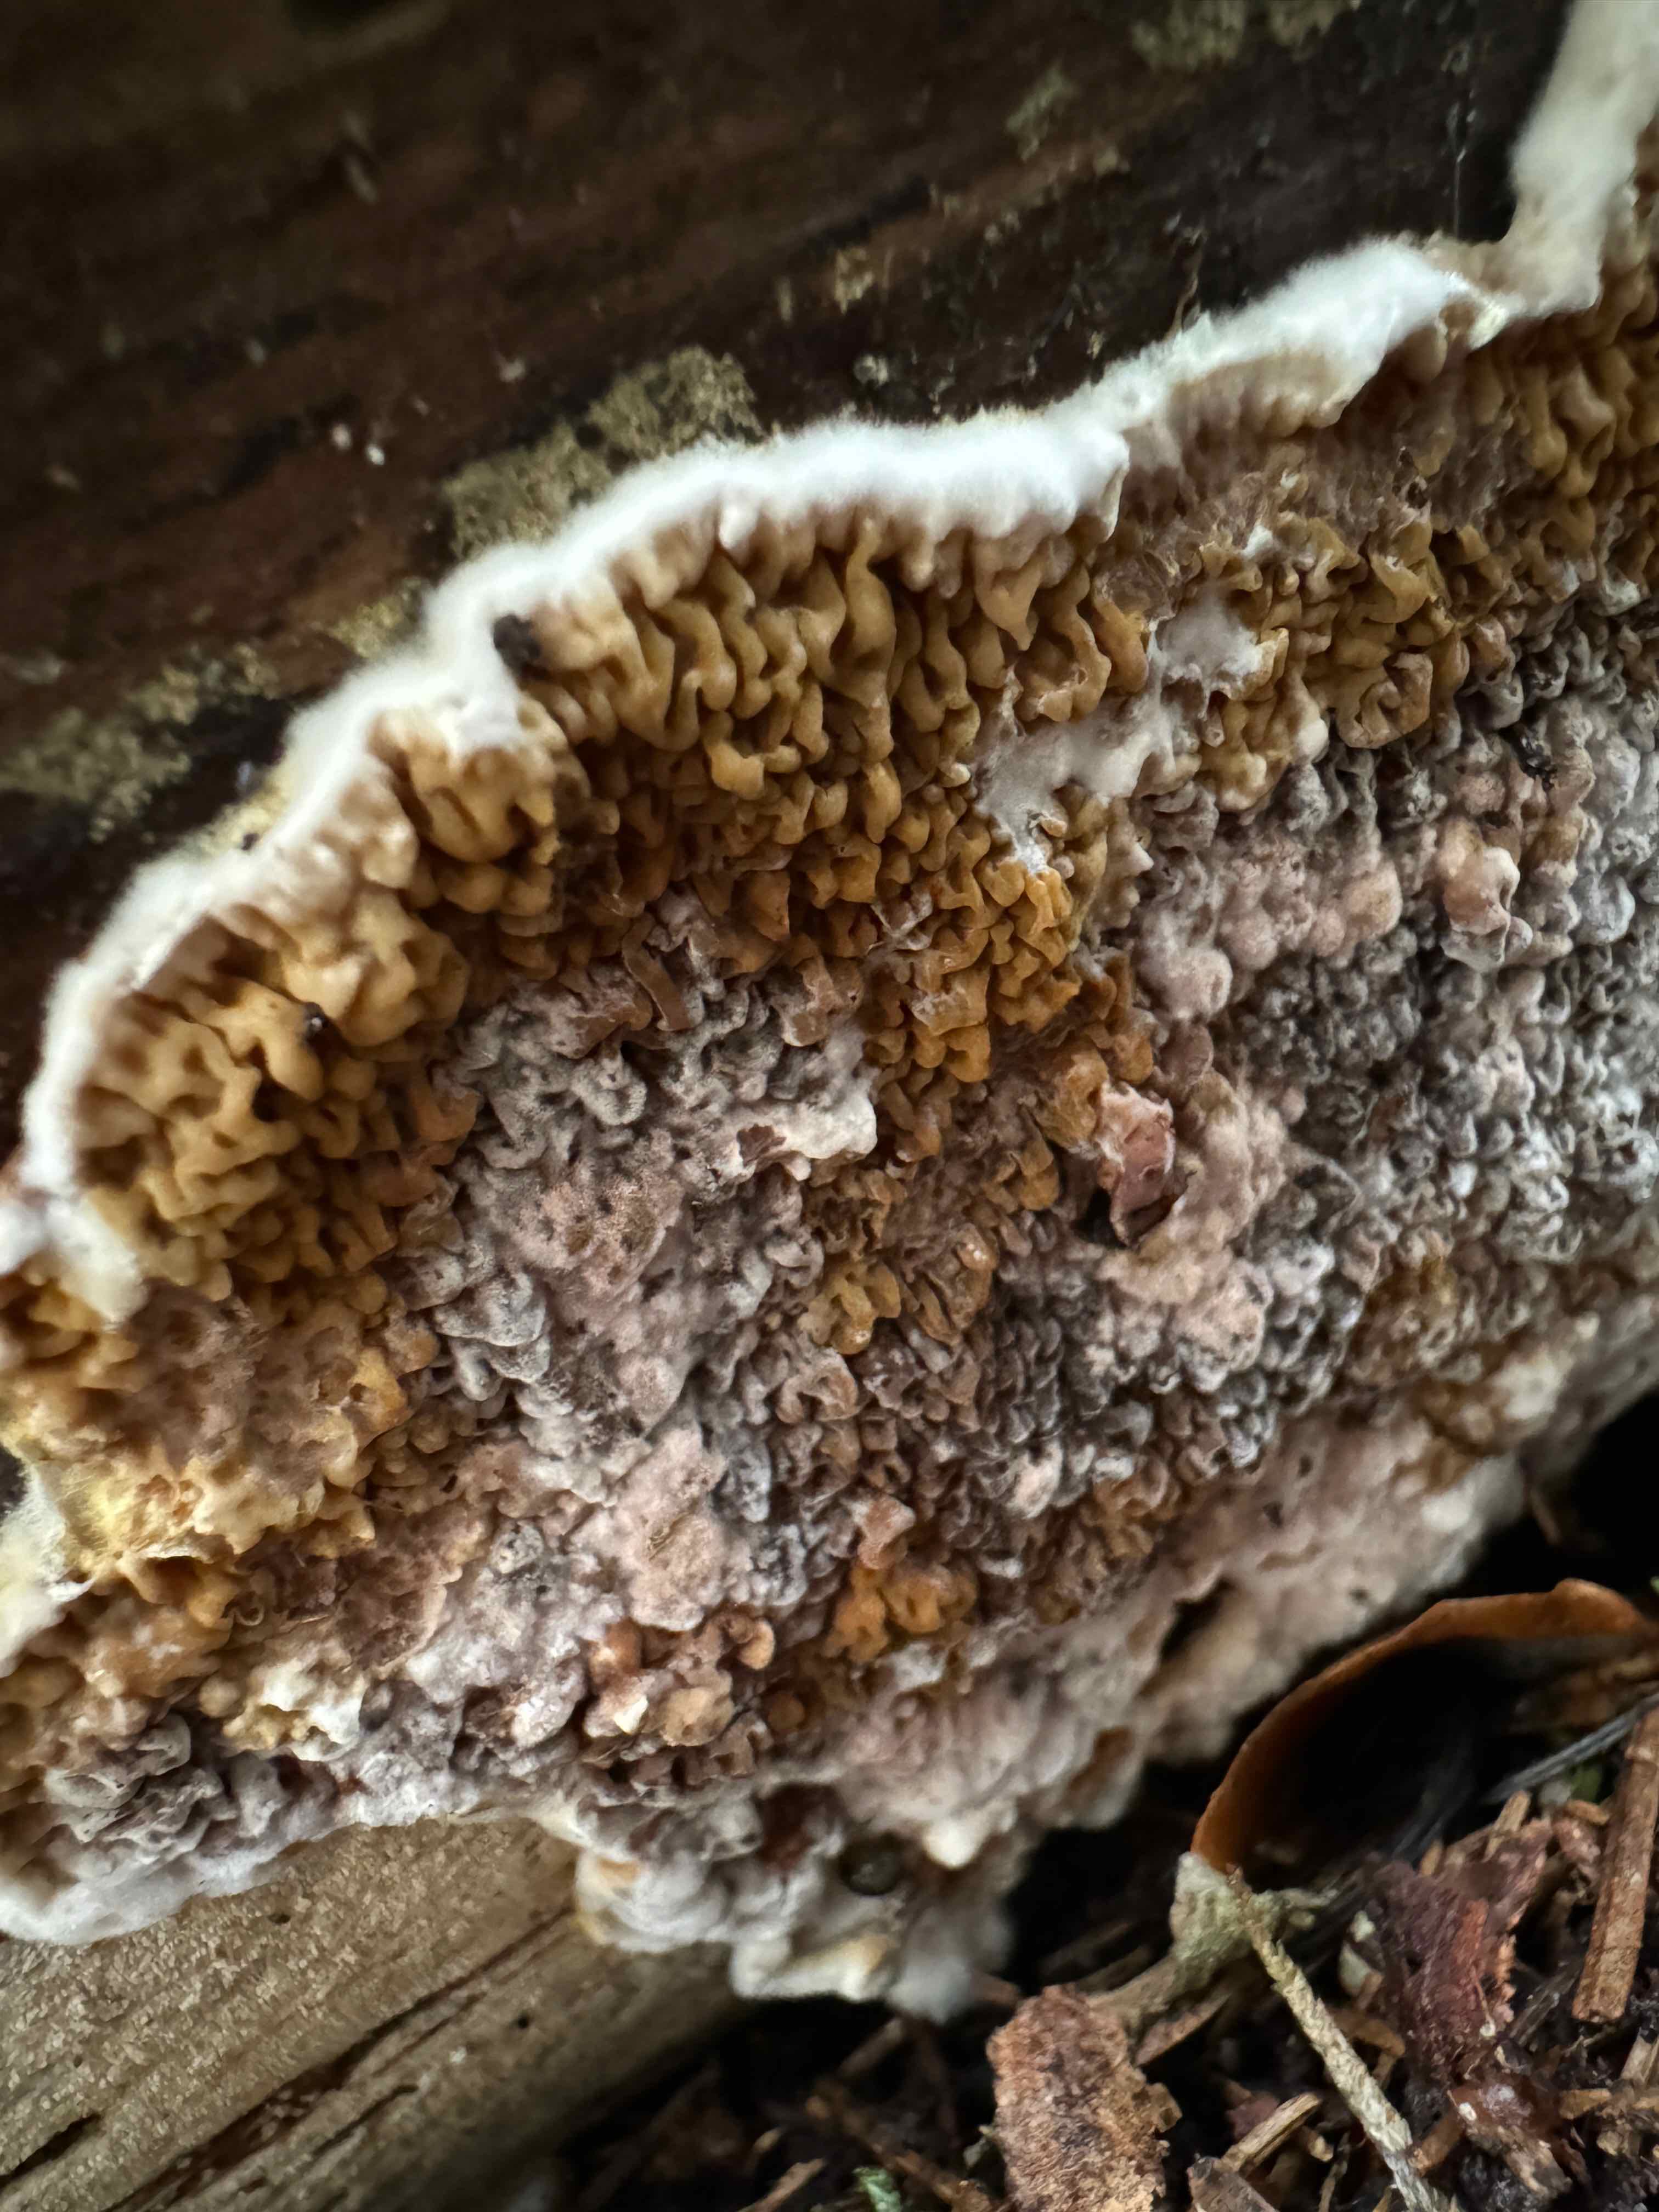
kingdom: Fungi
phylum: Basidiomycota
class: Agaricomycetes
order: Boletales
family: Serpulaceae
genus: Serpula
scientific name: Serpula himantioides
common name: tyndkødet hussvamp
